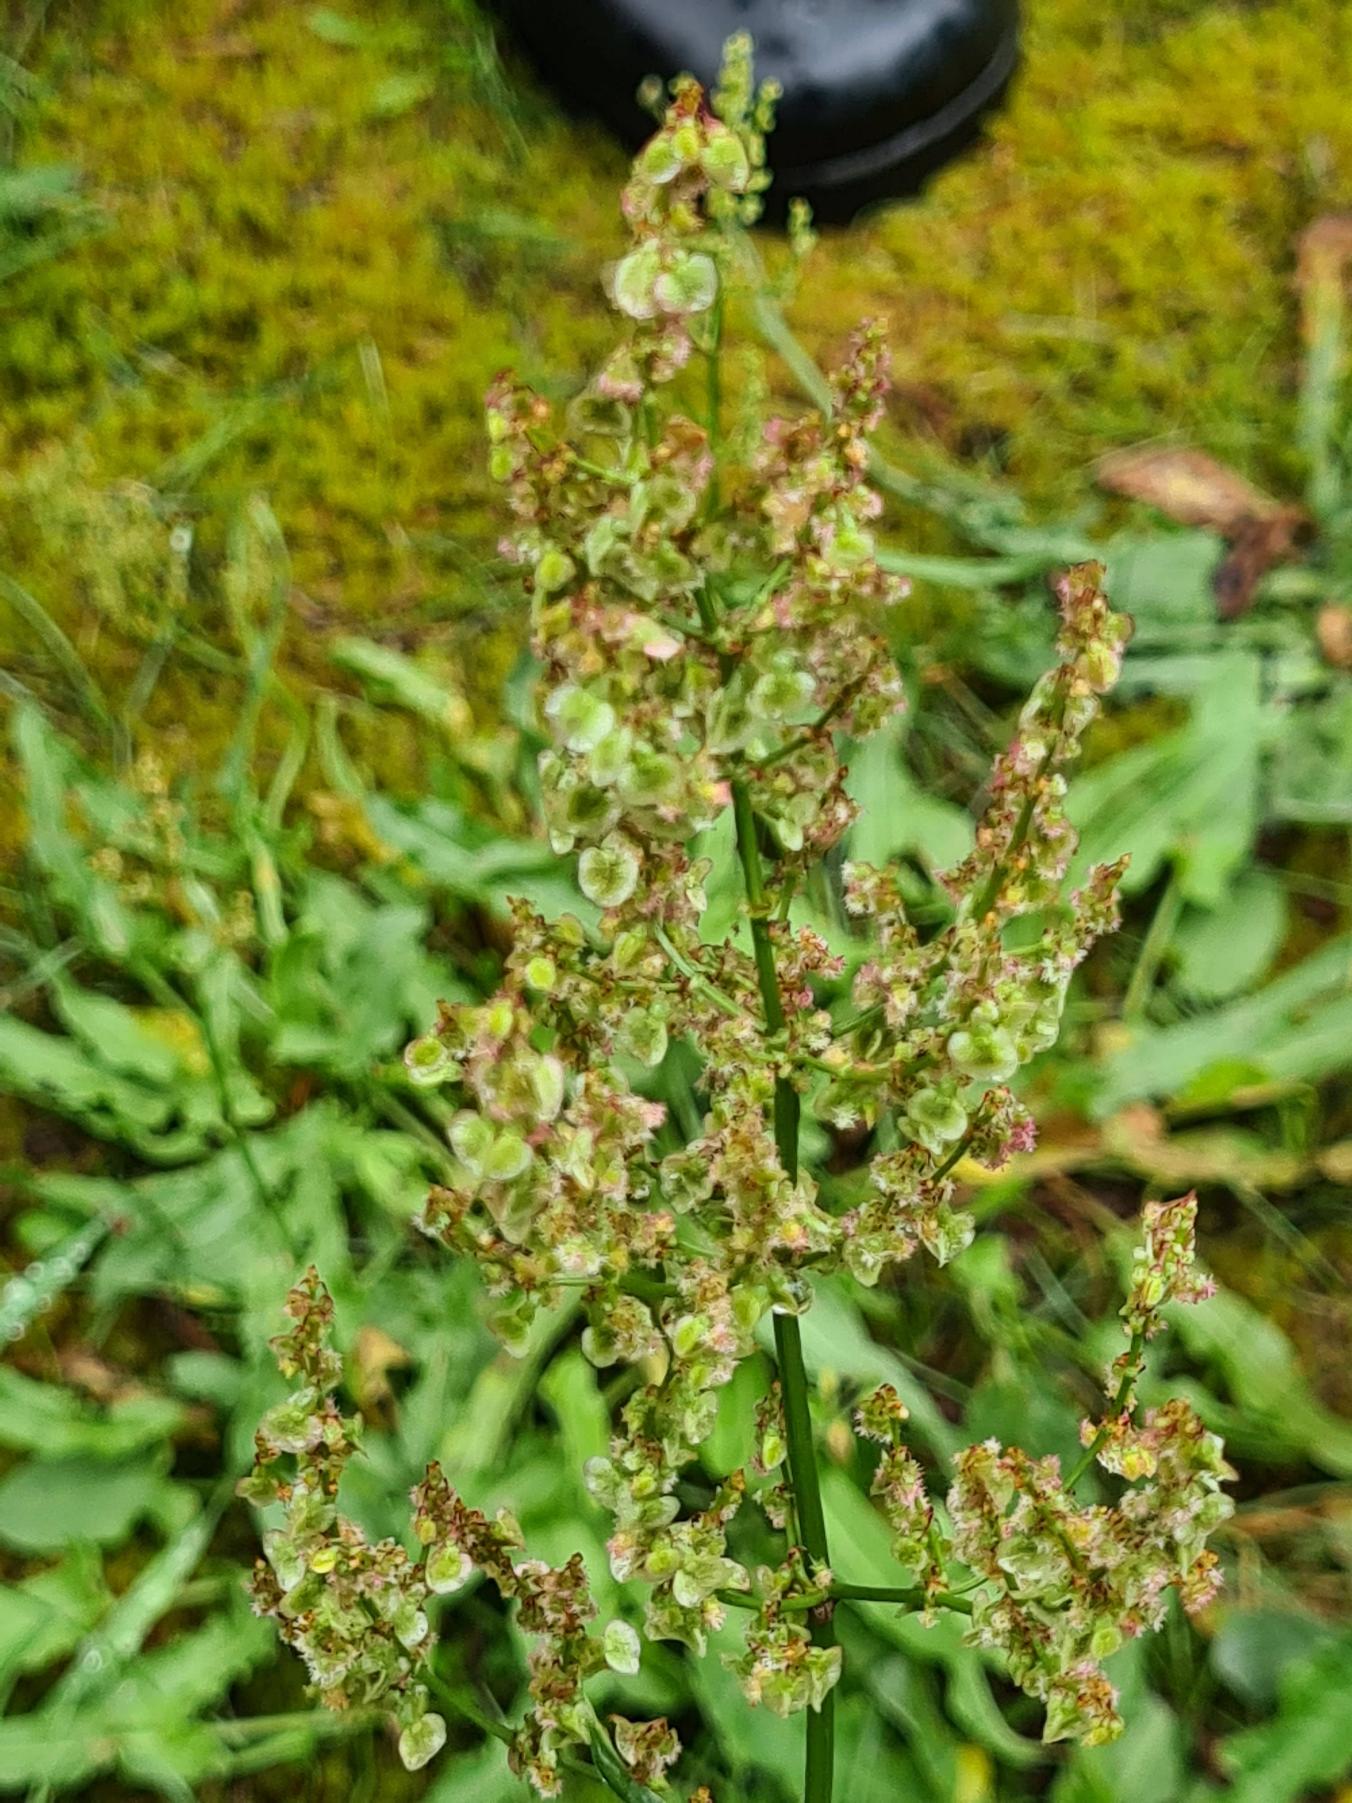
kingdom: Plantae
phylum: Tracheophyta
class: Magnoliopsida
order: Caryophyllales
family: Polygonaceae
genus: Rumex
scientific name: Rumex thyrsiflorus
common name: Dusk-syre
